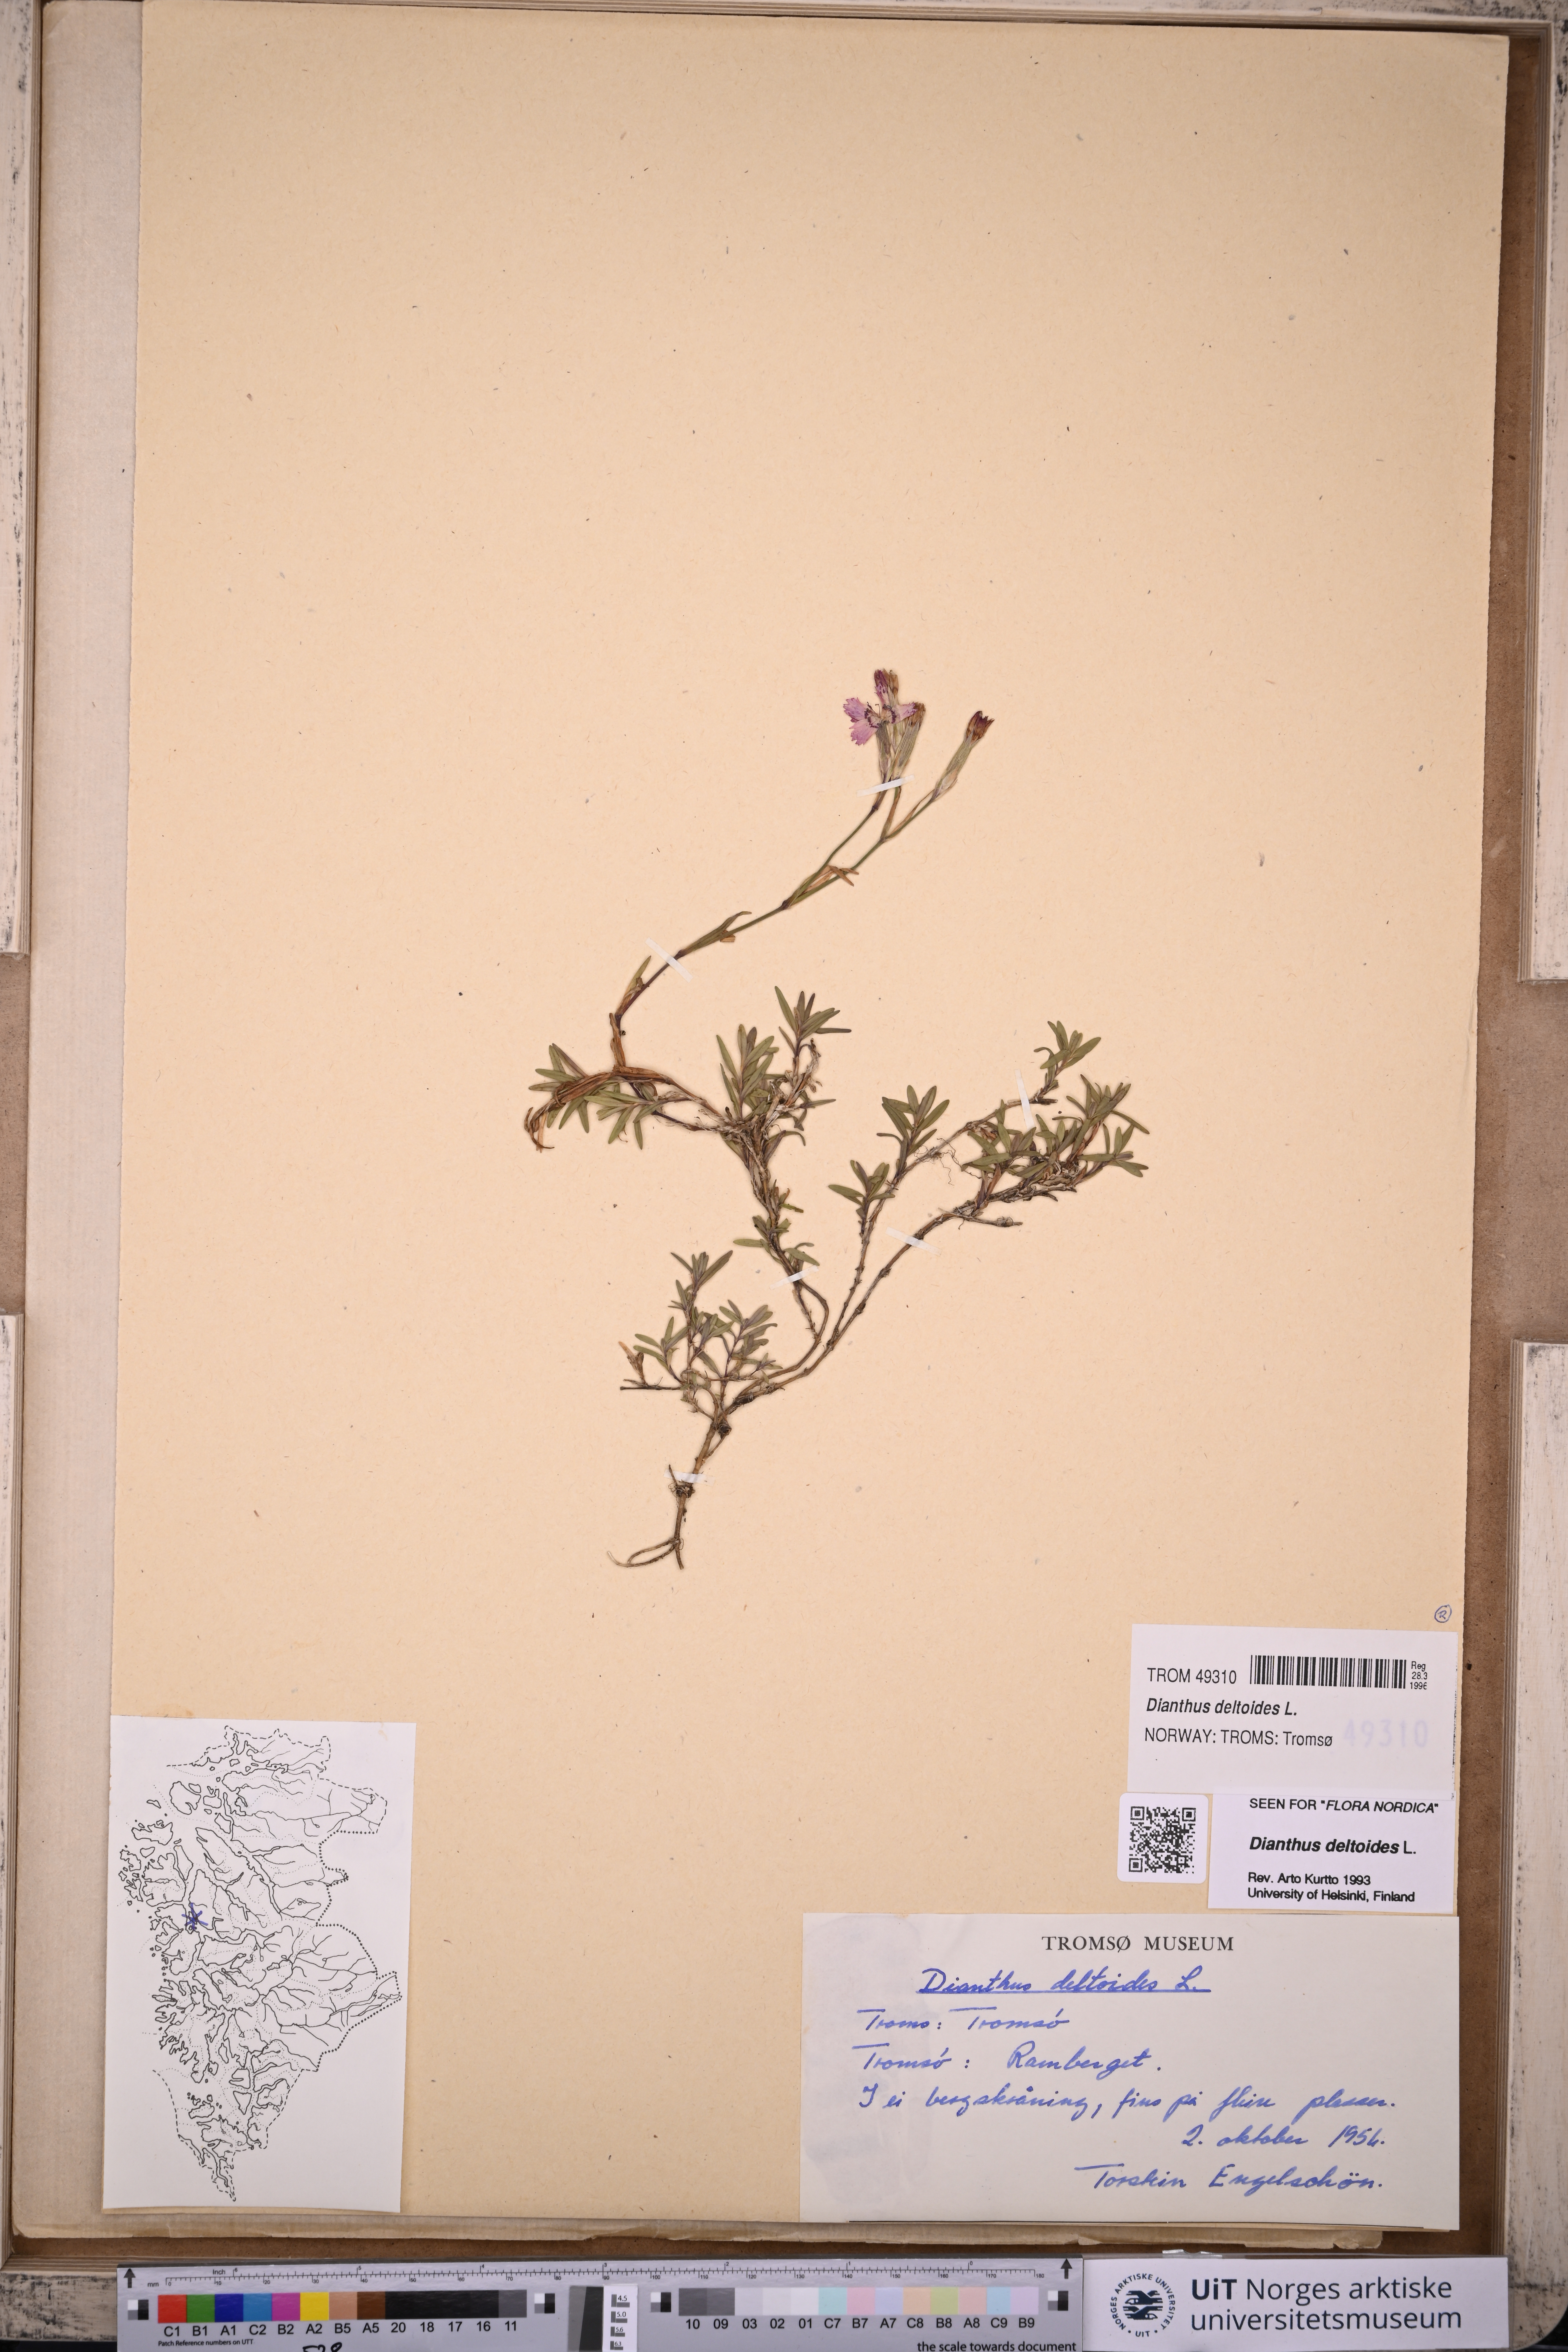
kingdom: Plantae
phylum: Tracheophyta
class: Magnoliopsida
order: Caryophyllales
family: Caryophyllaceae
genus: Dianthus
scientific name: Dianthus deltoides
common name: Maiden pink
